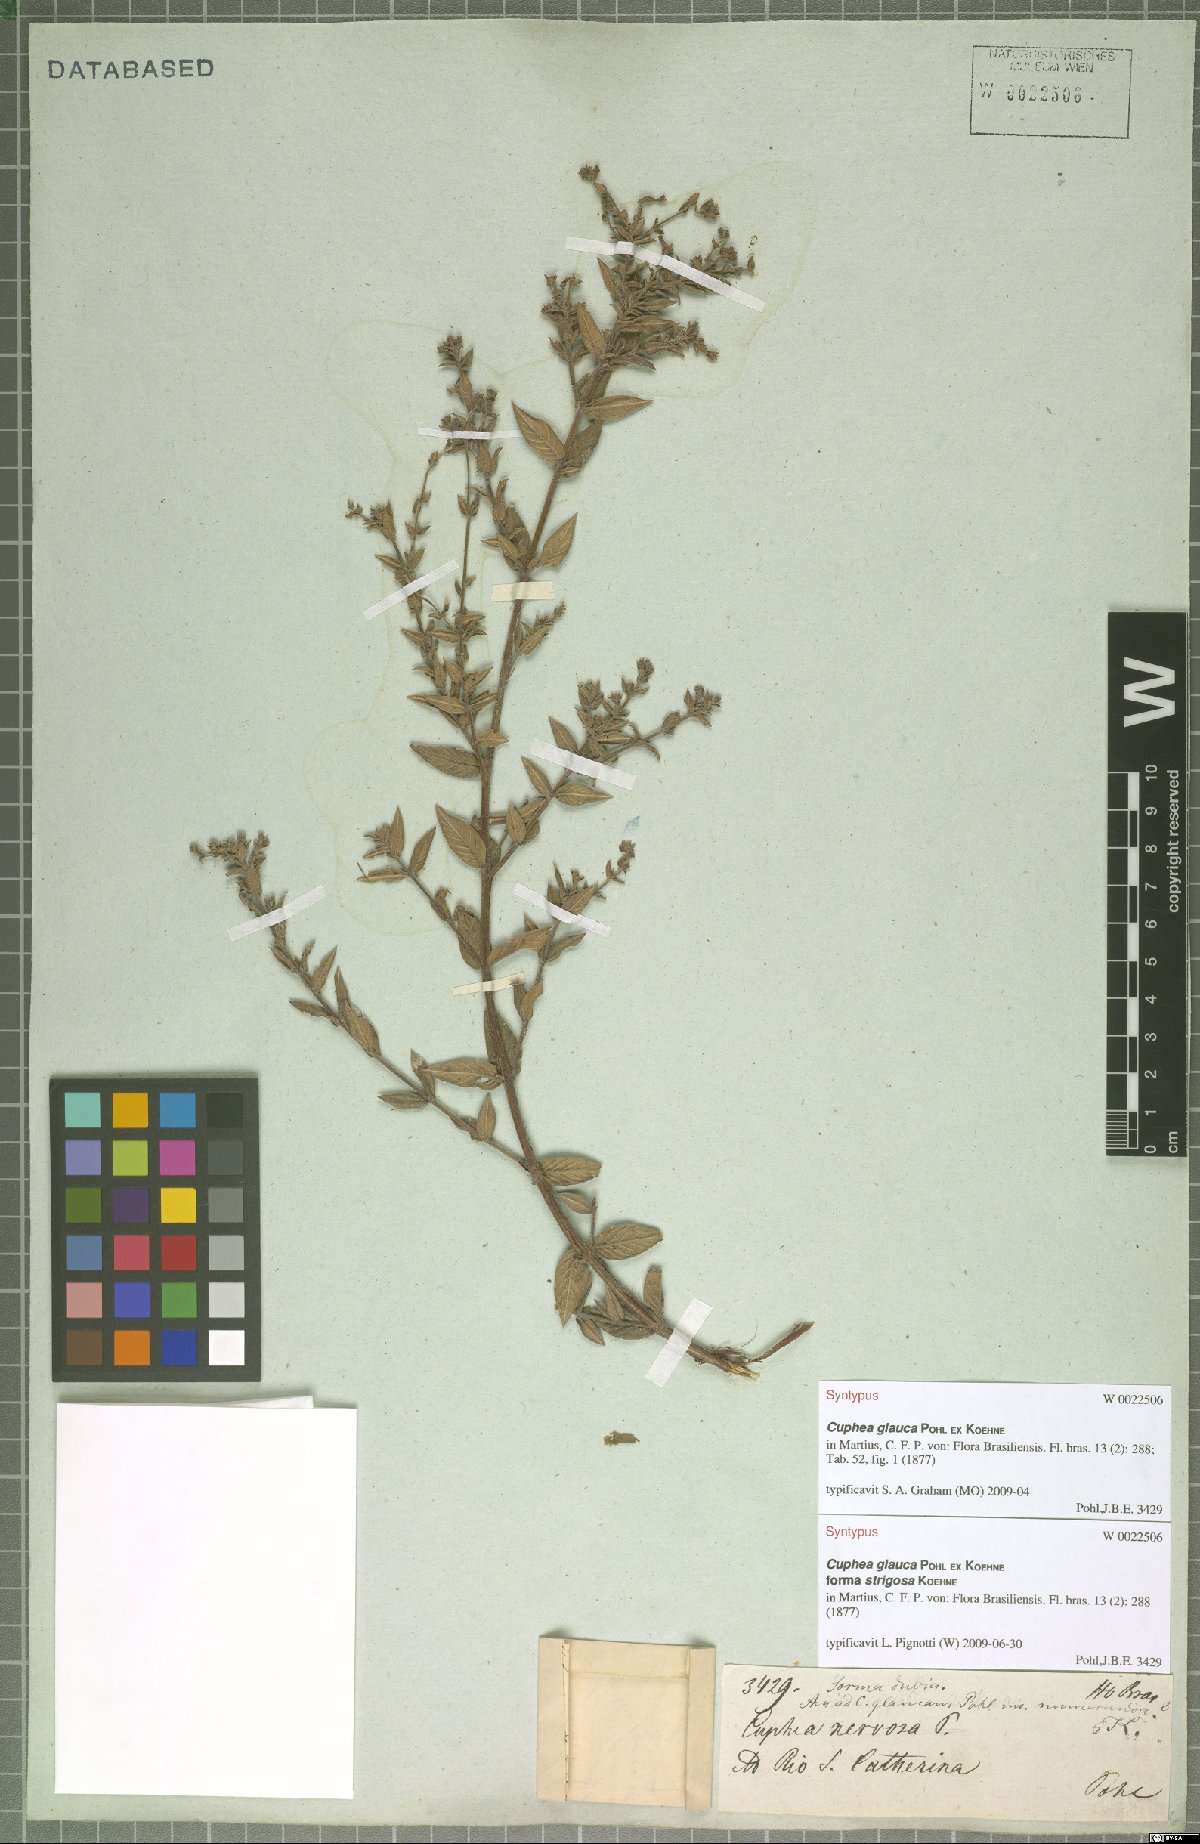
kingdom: Plantae
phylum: Tracheophyta
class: Magnoliopsida
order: Myrtales
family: Lythraceae
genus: Cuphea
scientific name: Cuphea glauca
